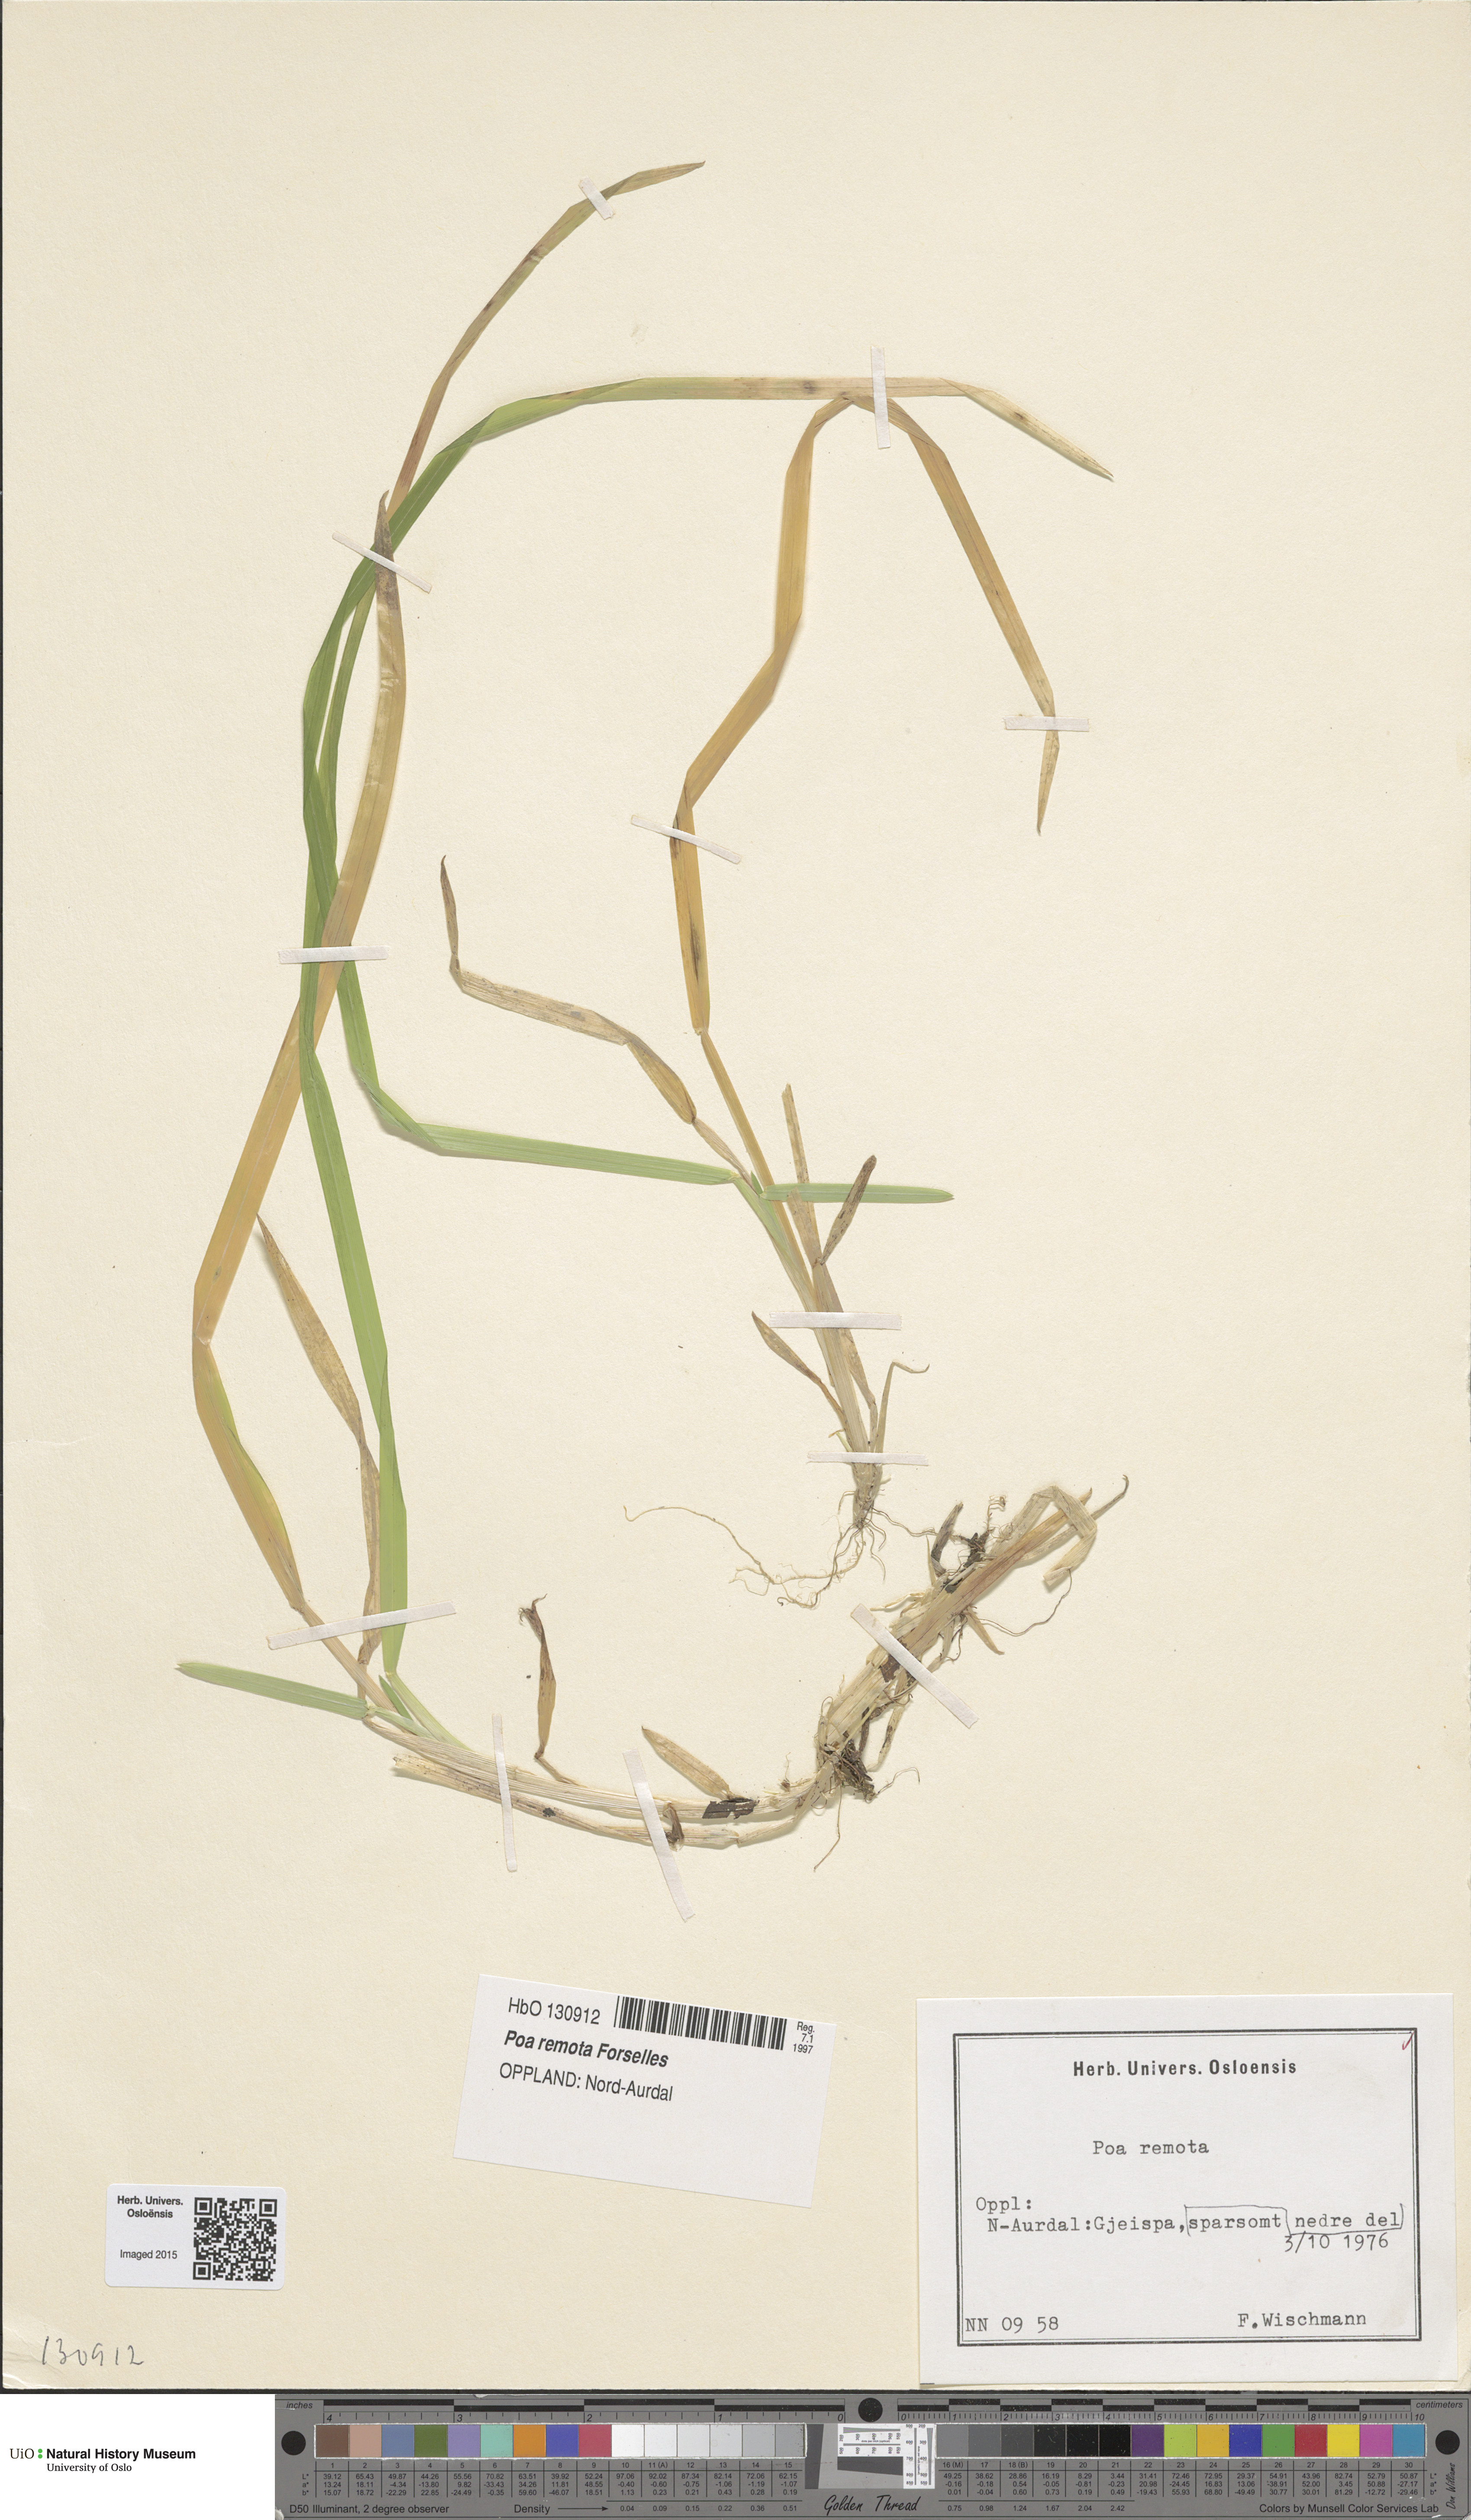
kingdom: Plantae
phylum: Tracheophyta
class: Liliopsida
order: Poales
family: Poaceae
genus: Poa
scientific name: Poa remota
